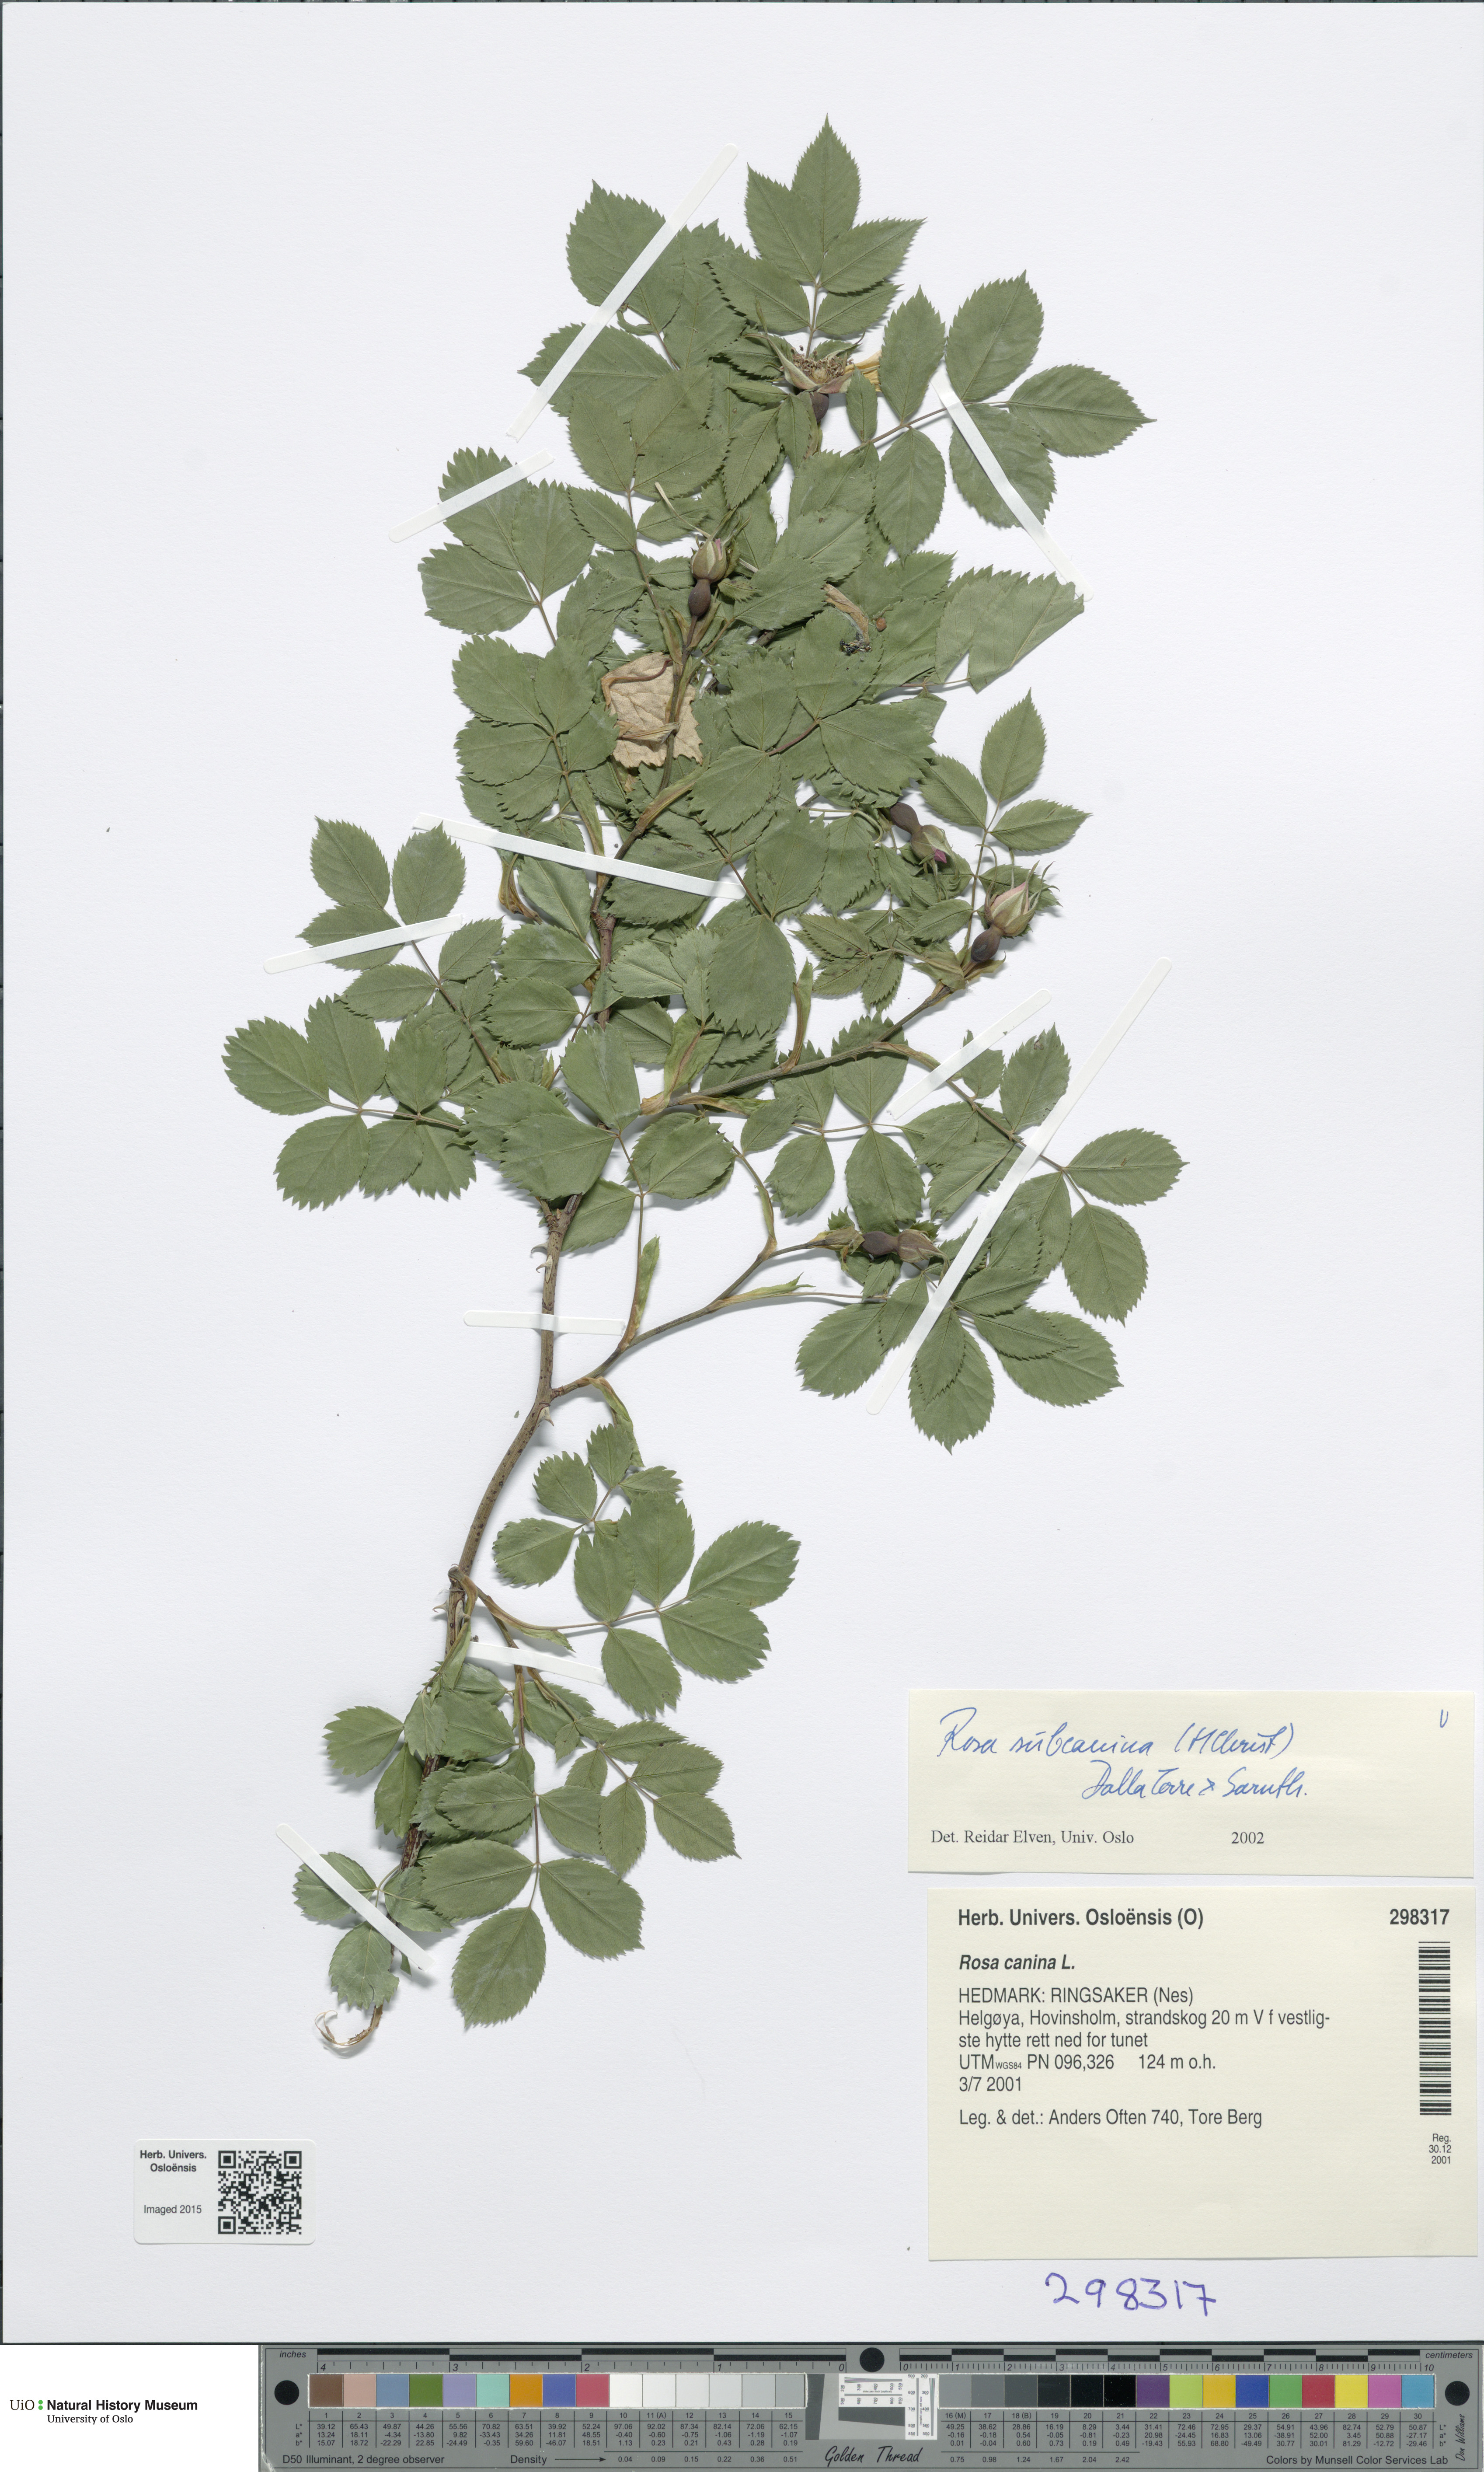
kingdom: Plantae
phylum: Tracheophyta
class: Magnoliopsida
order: Rosales
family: Rosaceae
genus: Rosa
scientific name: Rosa subcanina
